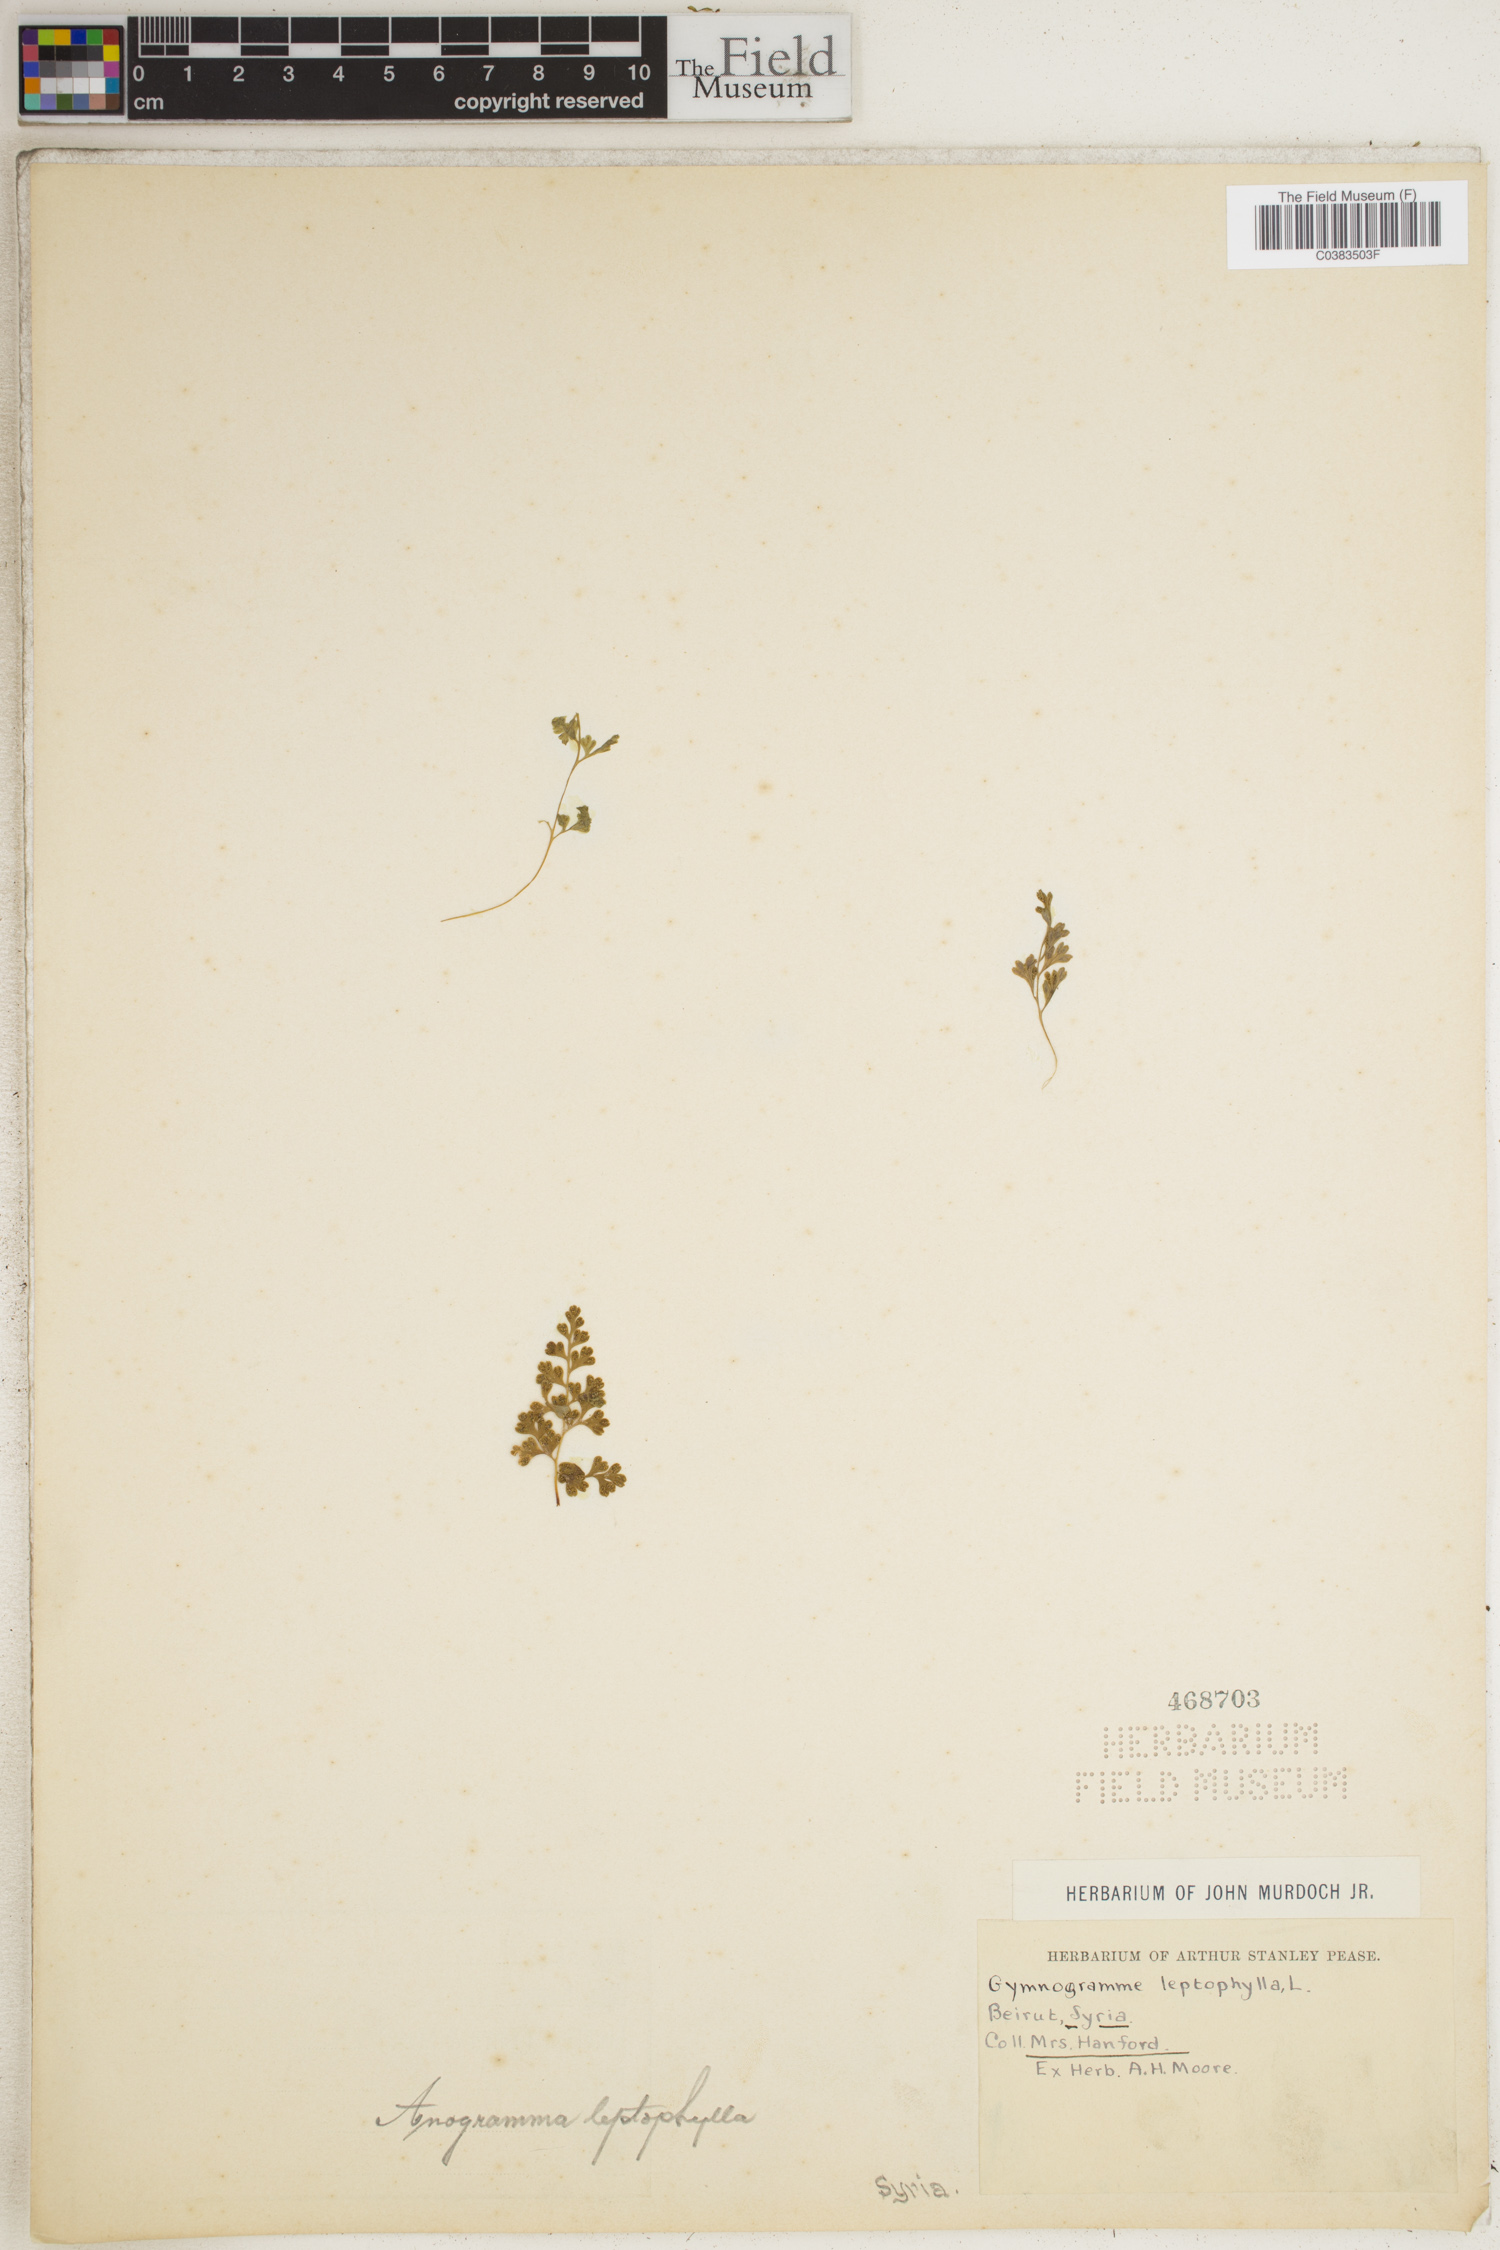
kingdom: Plantae
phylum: Tracheophyta
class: Polypodiopsida
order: Polypodiales
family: Pteridaceae
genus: Anogramma
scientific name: Anogramma leptophylla
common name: Jersey fern
